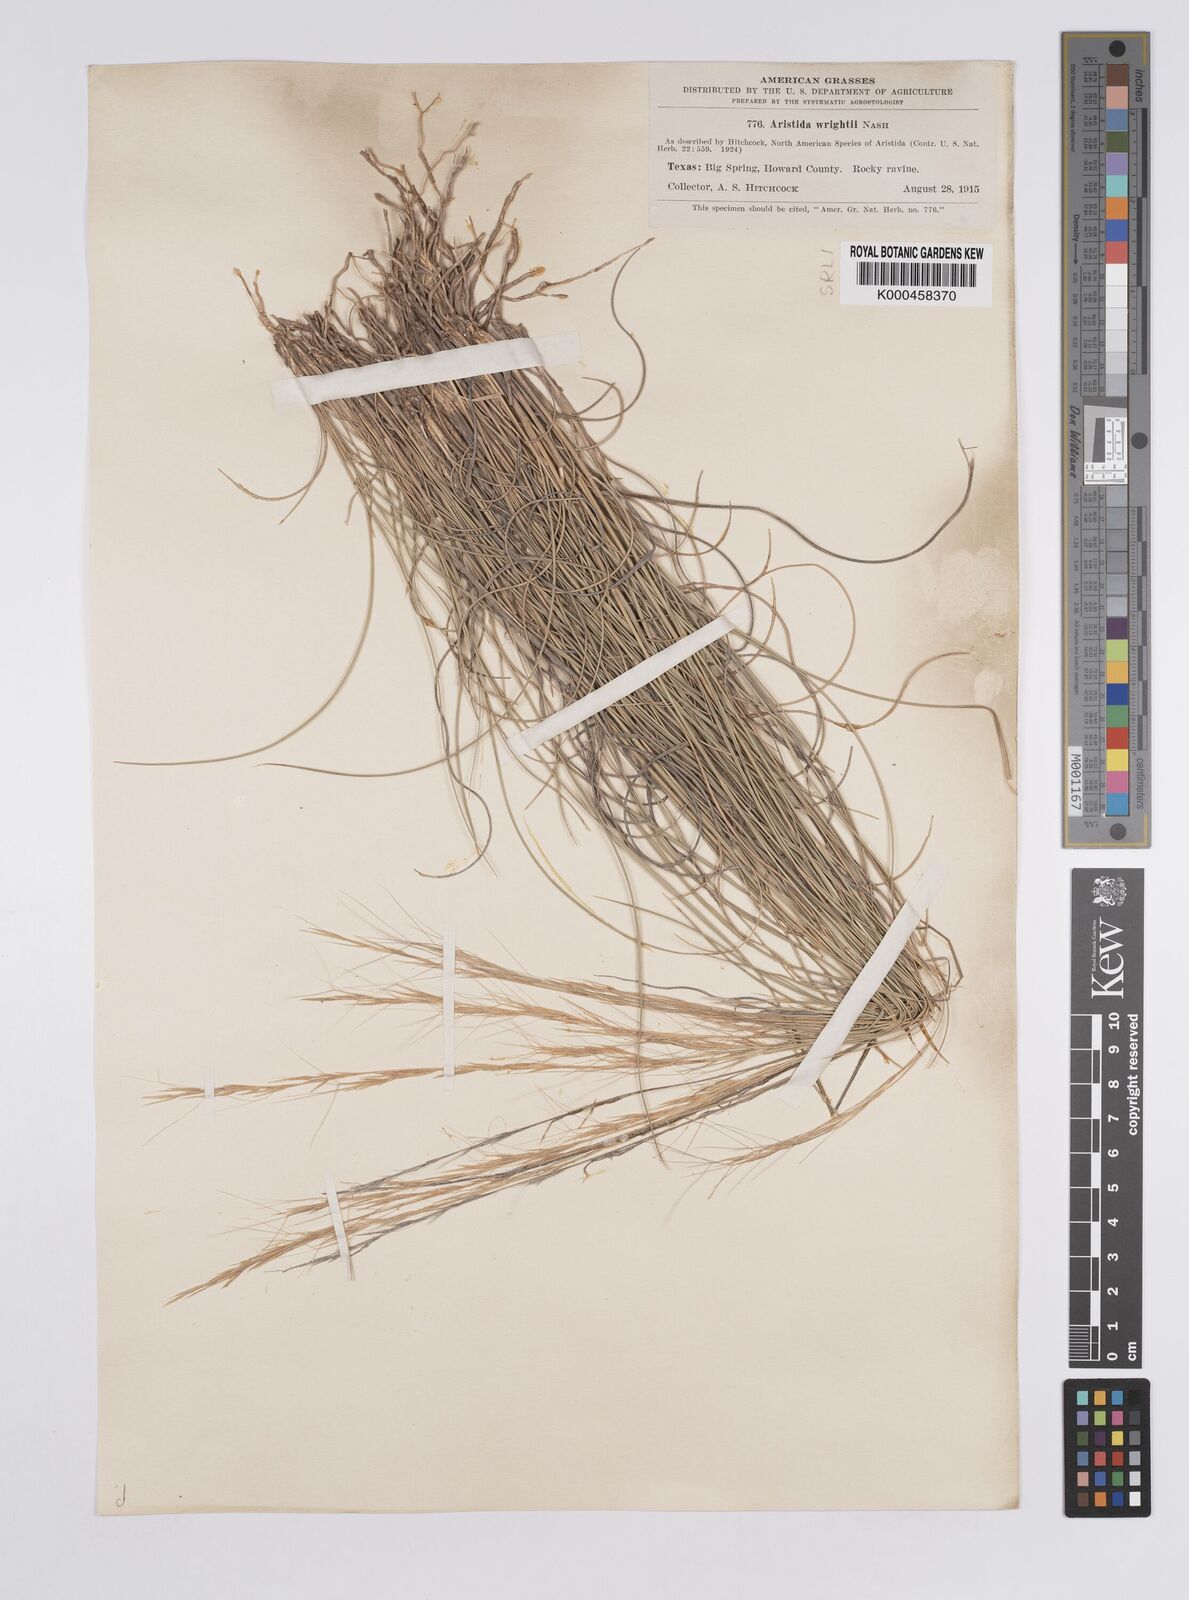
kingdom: Plantae
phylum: Tracheophyta
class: Liliopsida
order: Poales
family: Poaceae
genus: Aristida
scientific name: Aristida wrightii
